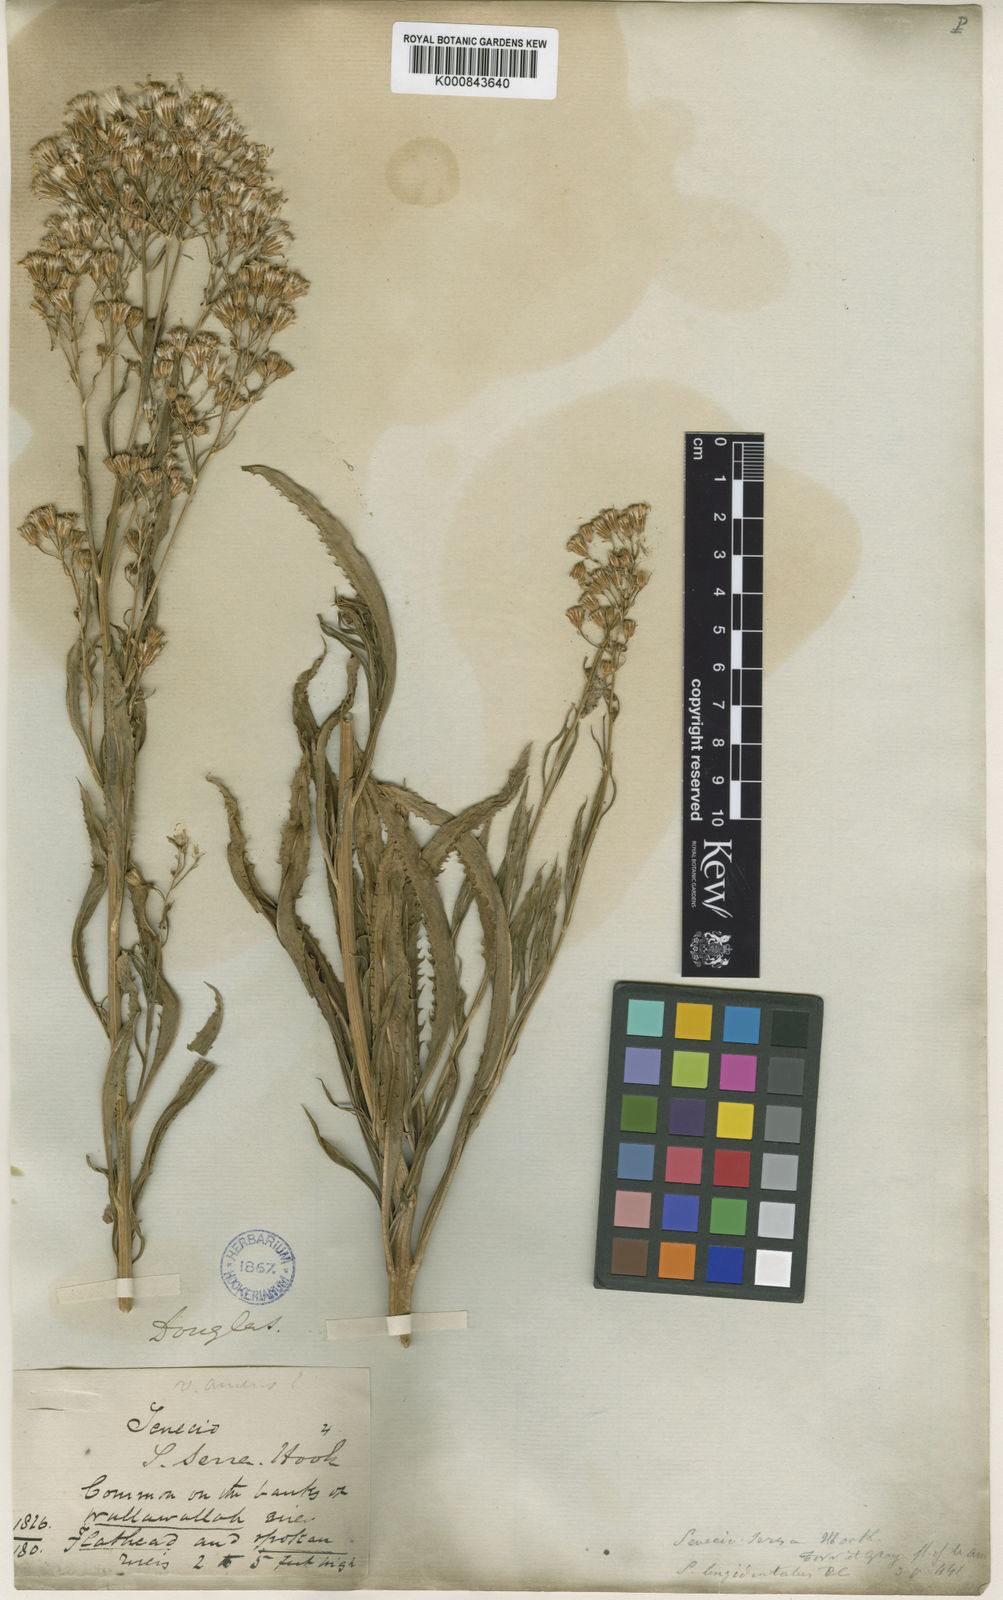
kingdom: Plantae
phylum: Tracheophyta
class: Magnoliopsida
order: Asterales
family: Asteraceae
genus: Senecio
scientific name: Senecio serra
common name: Tall ragwort
